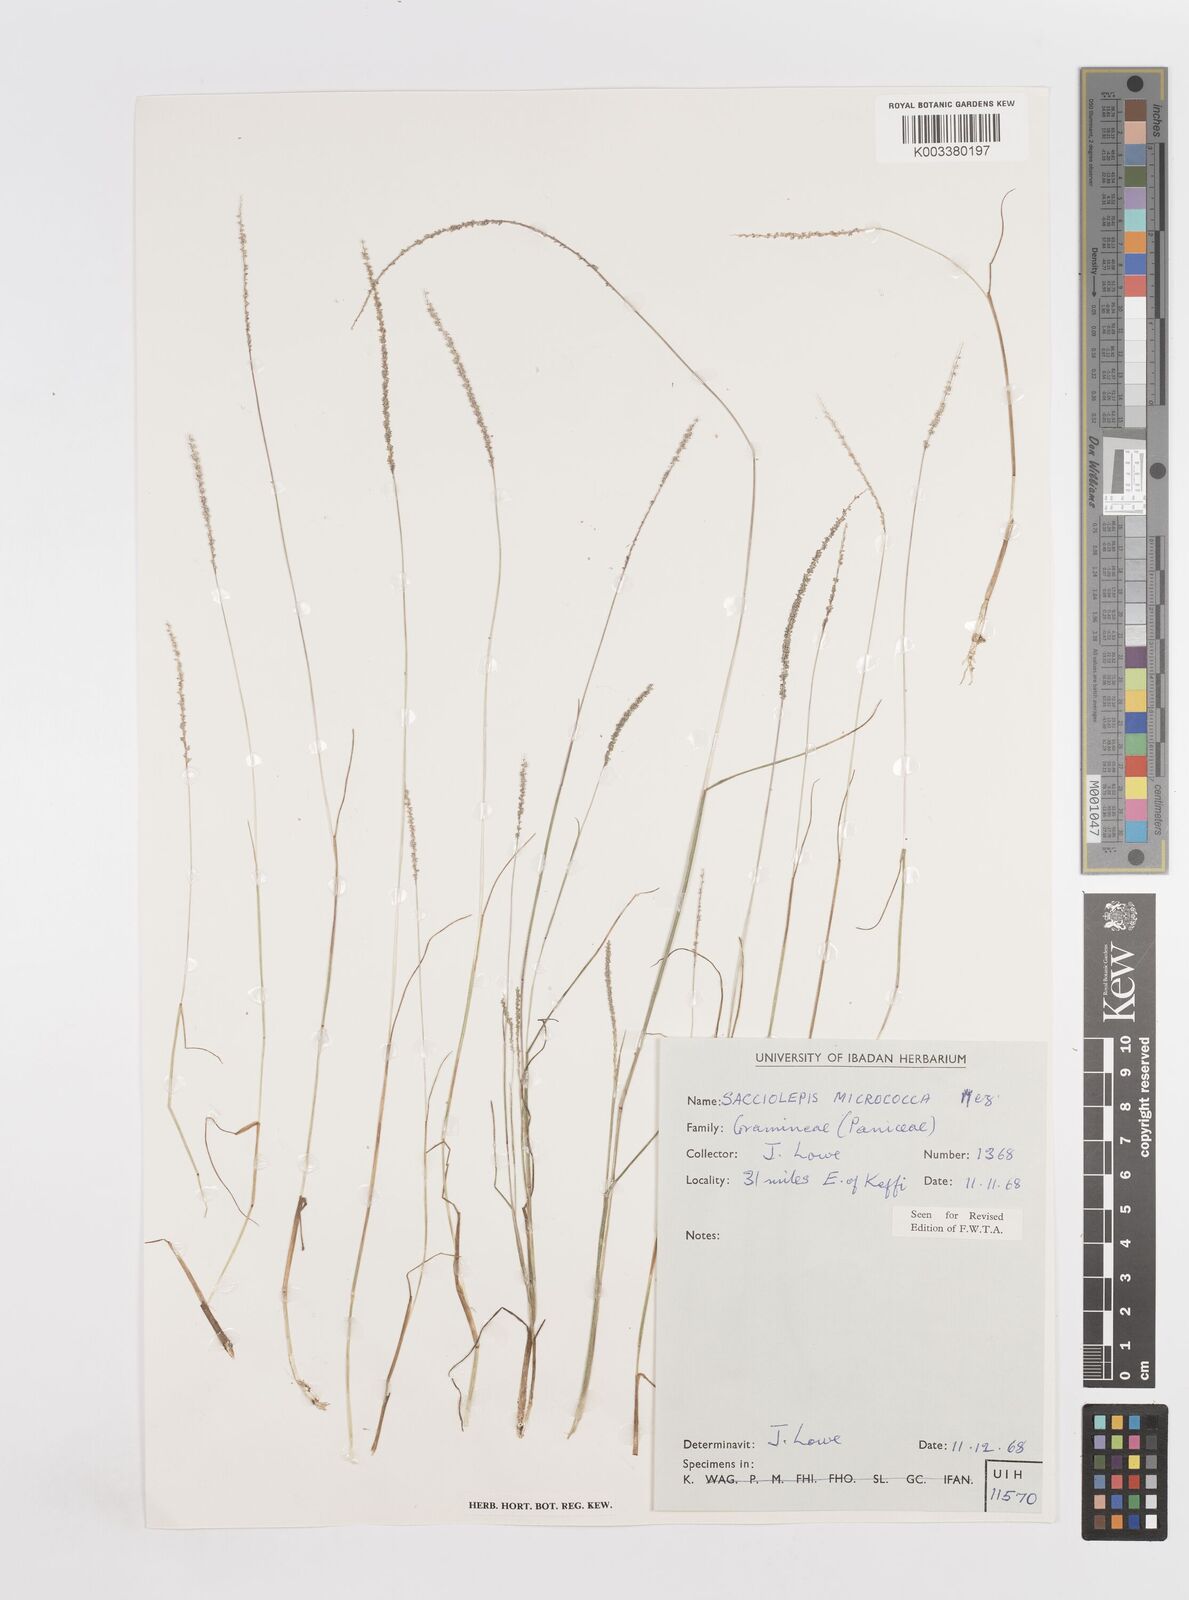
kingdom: Plantae
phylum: Tracheophyta
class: Liliopsida
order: Poales
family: Poaceae
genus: Sacciolepis
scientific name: Sacciolepis micrococca
